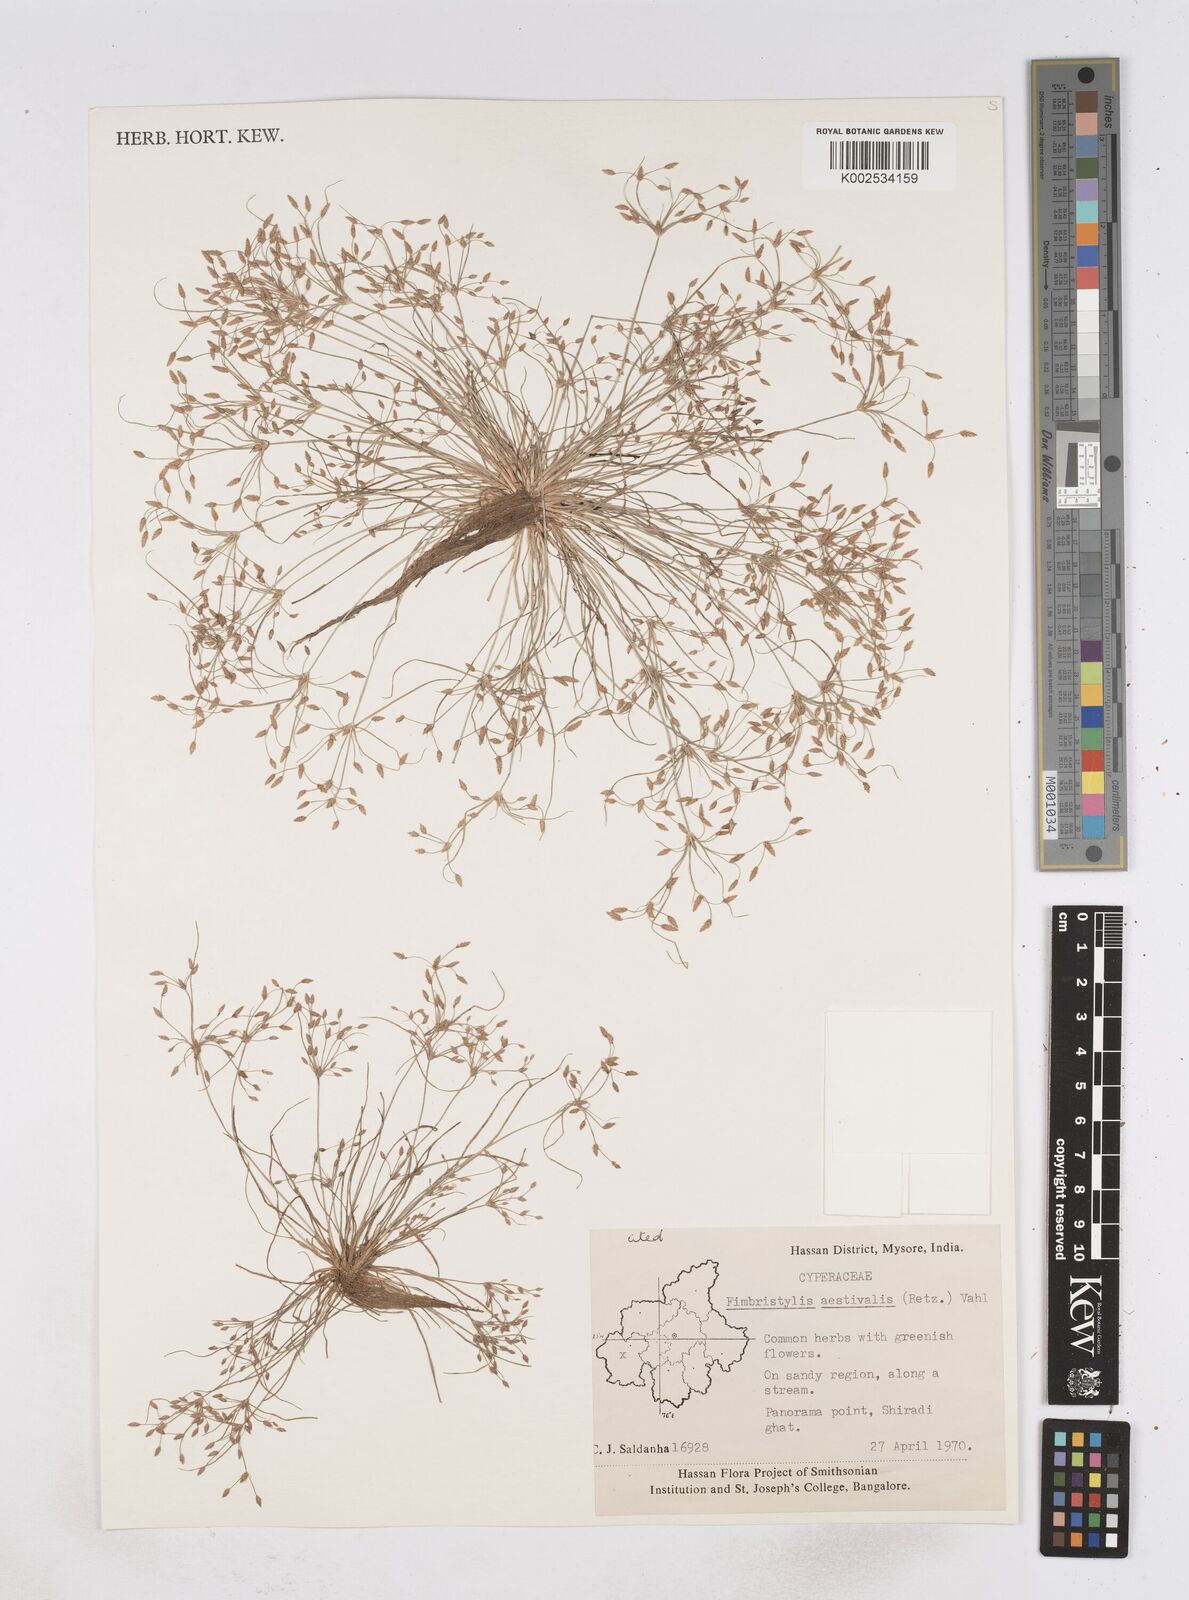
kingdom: Plantae
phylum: Tracheophyta
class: Liliopsida
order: Poales
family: Cyperaceae
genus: Fimbristylis
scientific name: Fimbristylis aestivalis
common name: Summer fimbry
